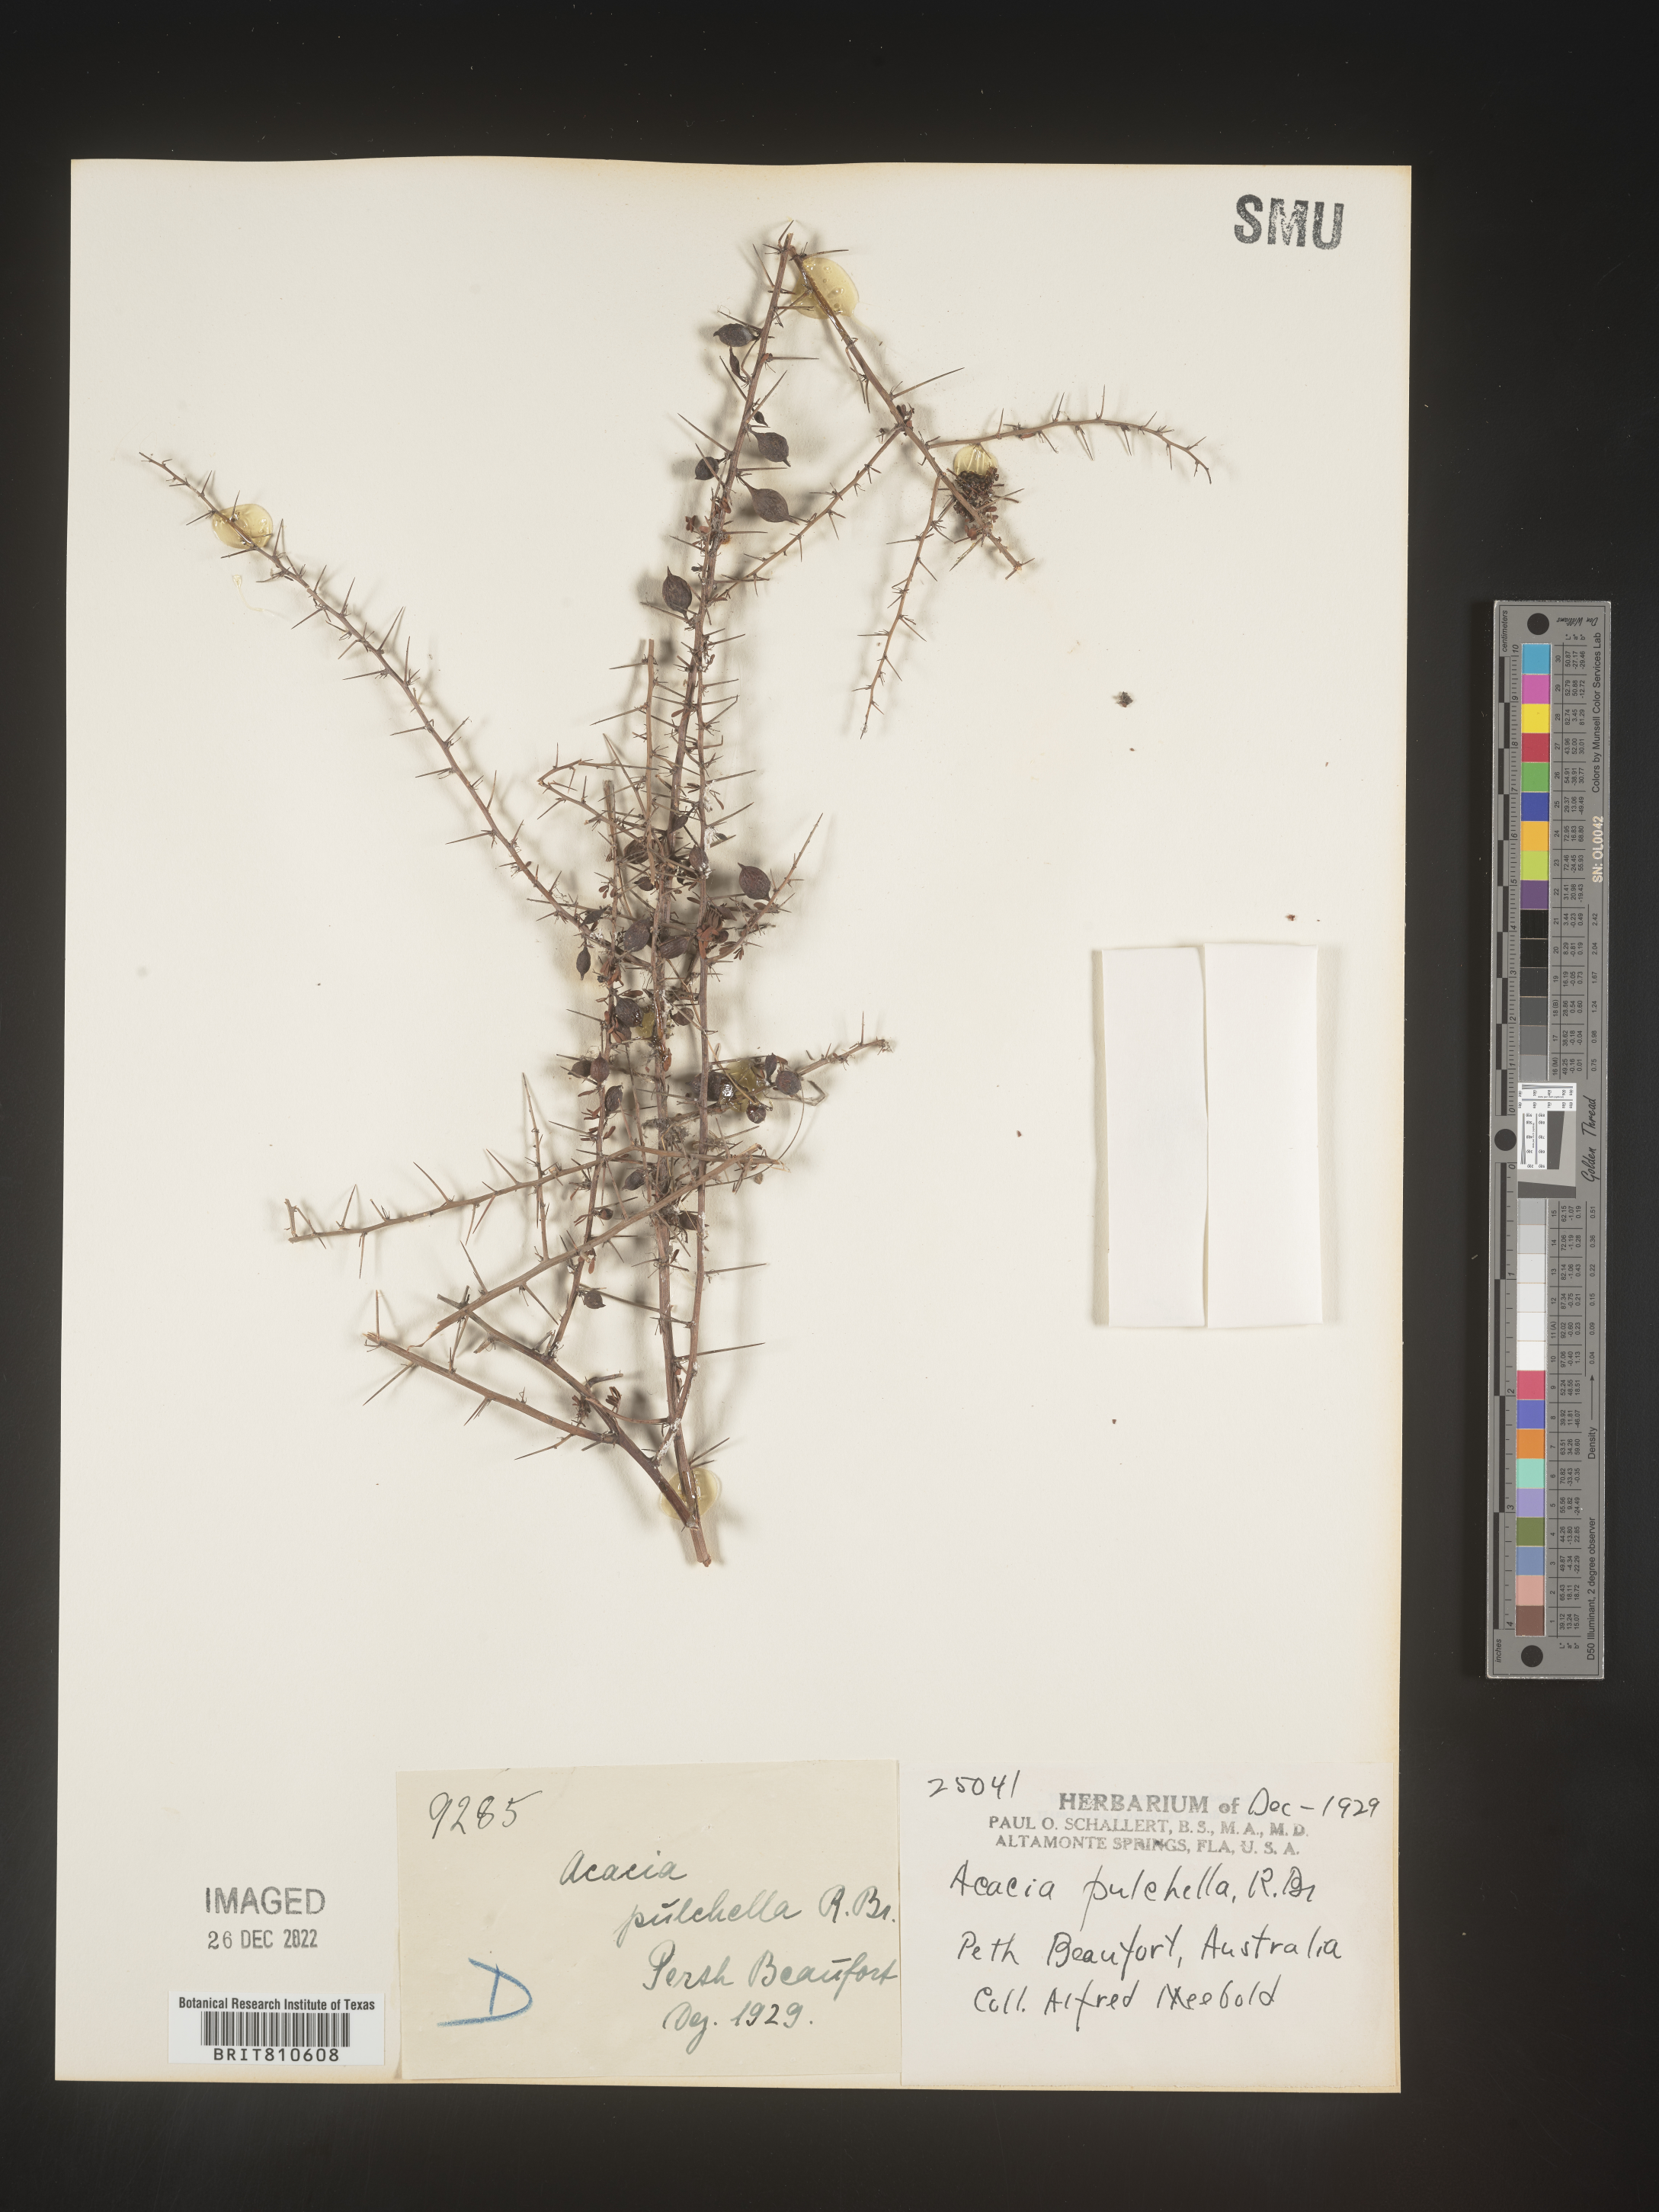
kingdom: Plantae
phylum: Tracheophyta
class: Magnoliopsida
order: Fabales
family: Fabaceae
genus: Acacia
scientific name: Acacia
